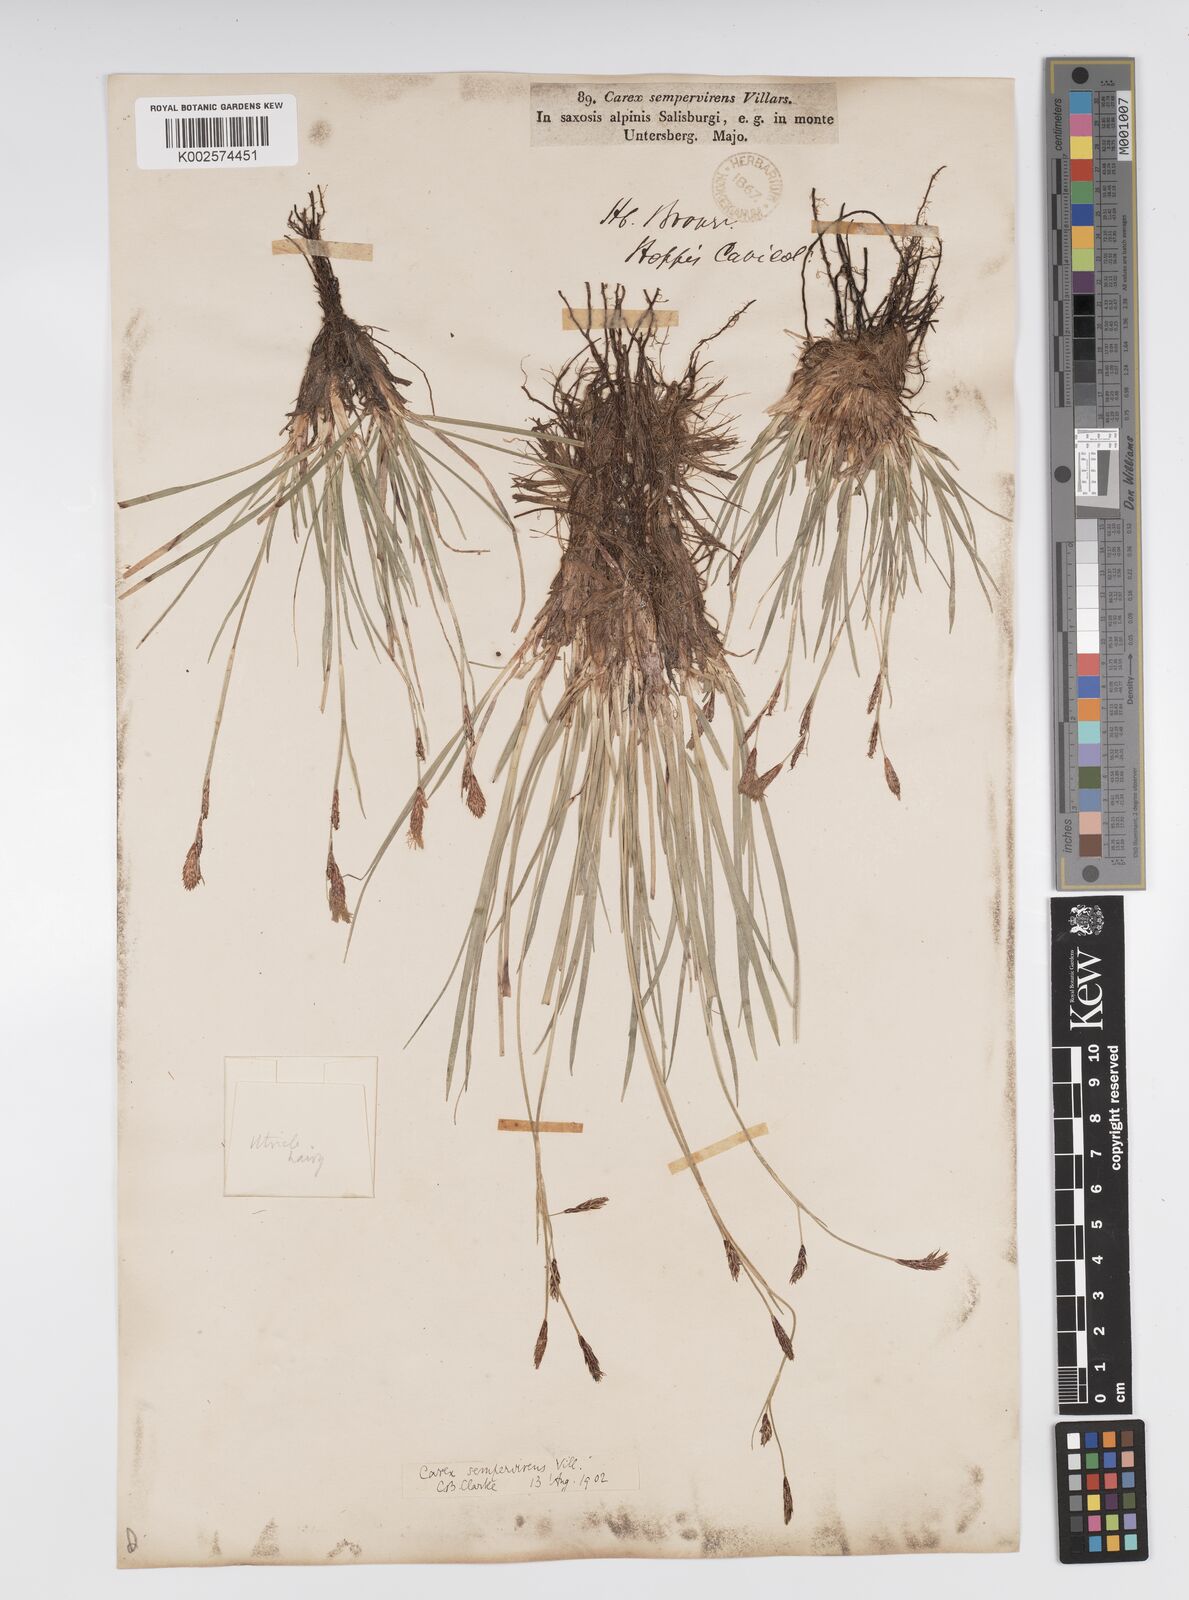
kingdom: Plantae
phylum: Tracheophyta
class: Liliopsida
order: Poales
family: Cyperaceae
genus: Carex
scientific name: Carex sempervirens
